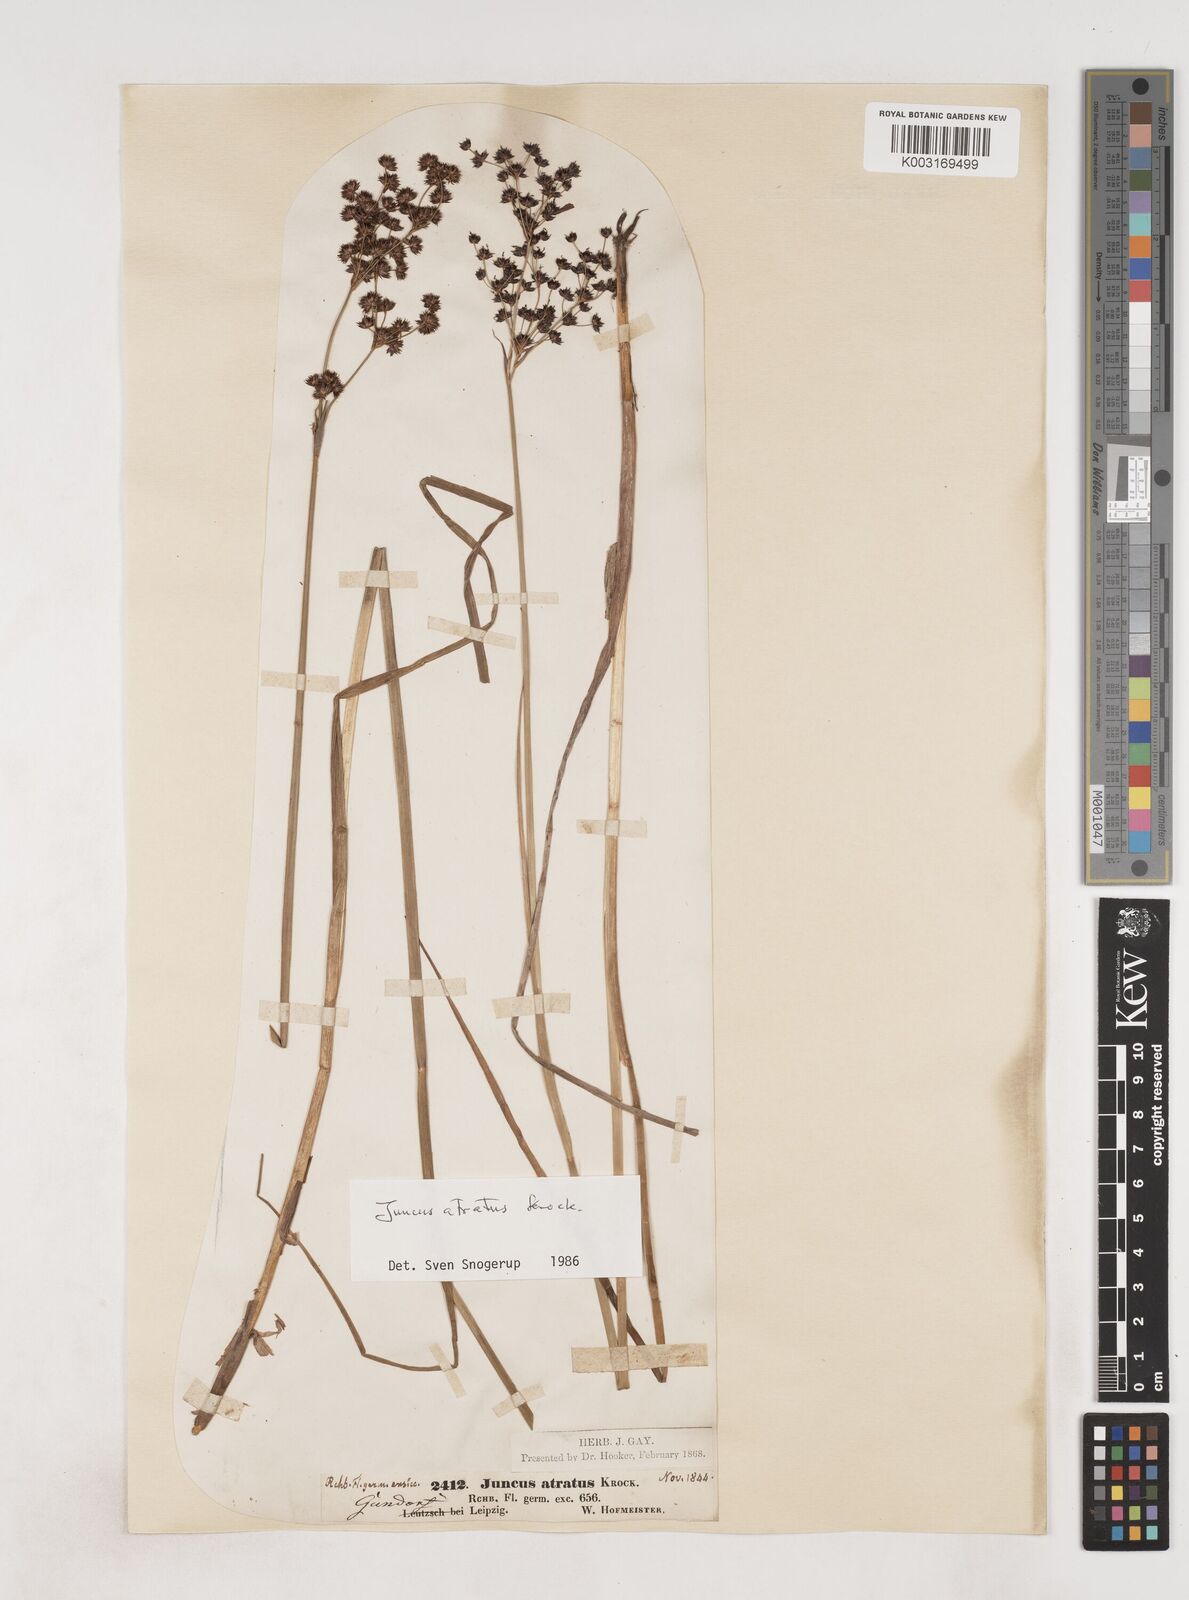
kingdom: Plantae
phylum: Tracheophyta
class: Liliopsida
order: Poales
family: Juncaceae
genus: Juncus
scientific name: Juncus atratus
